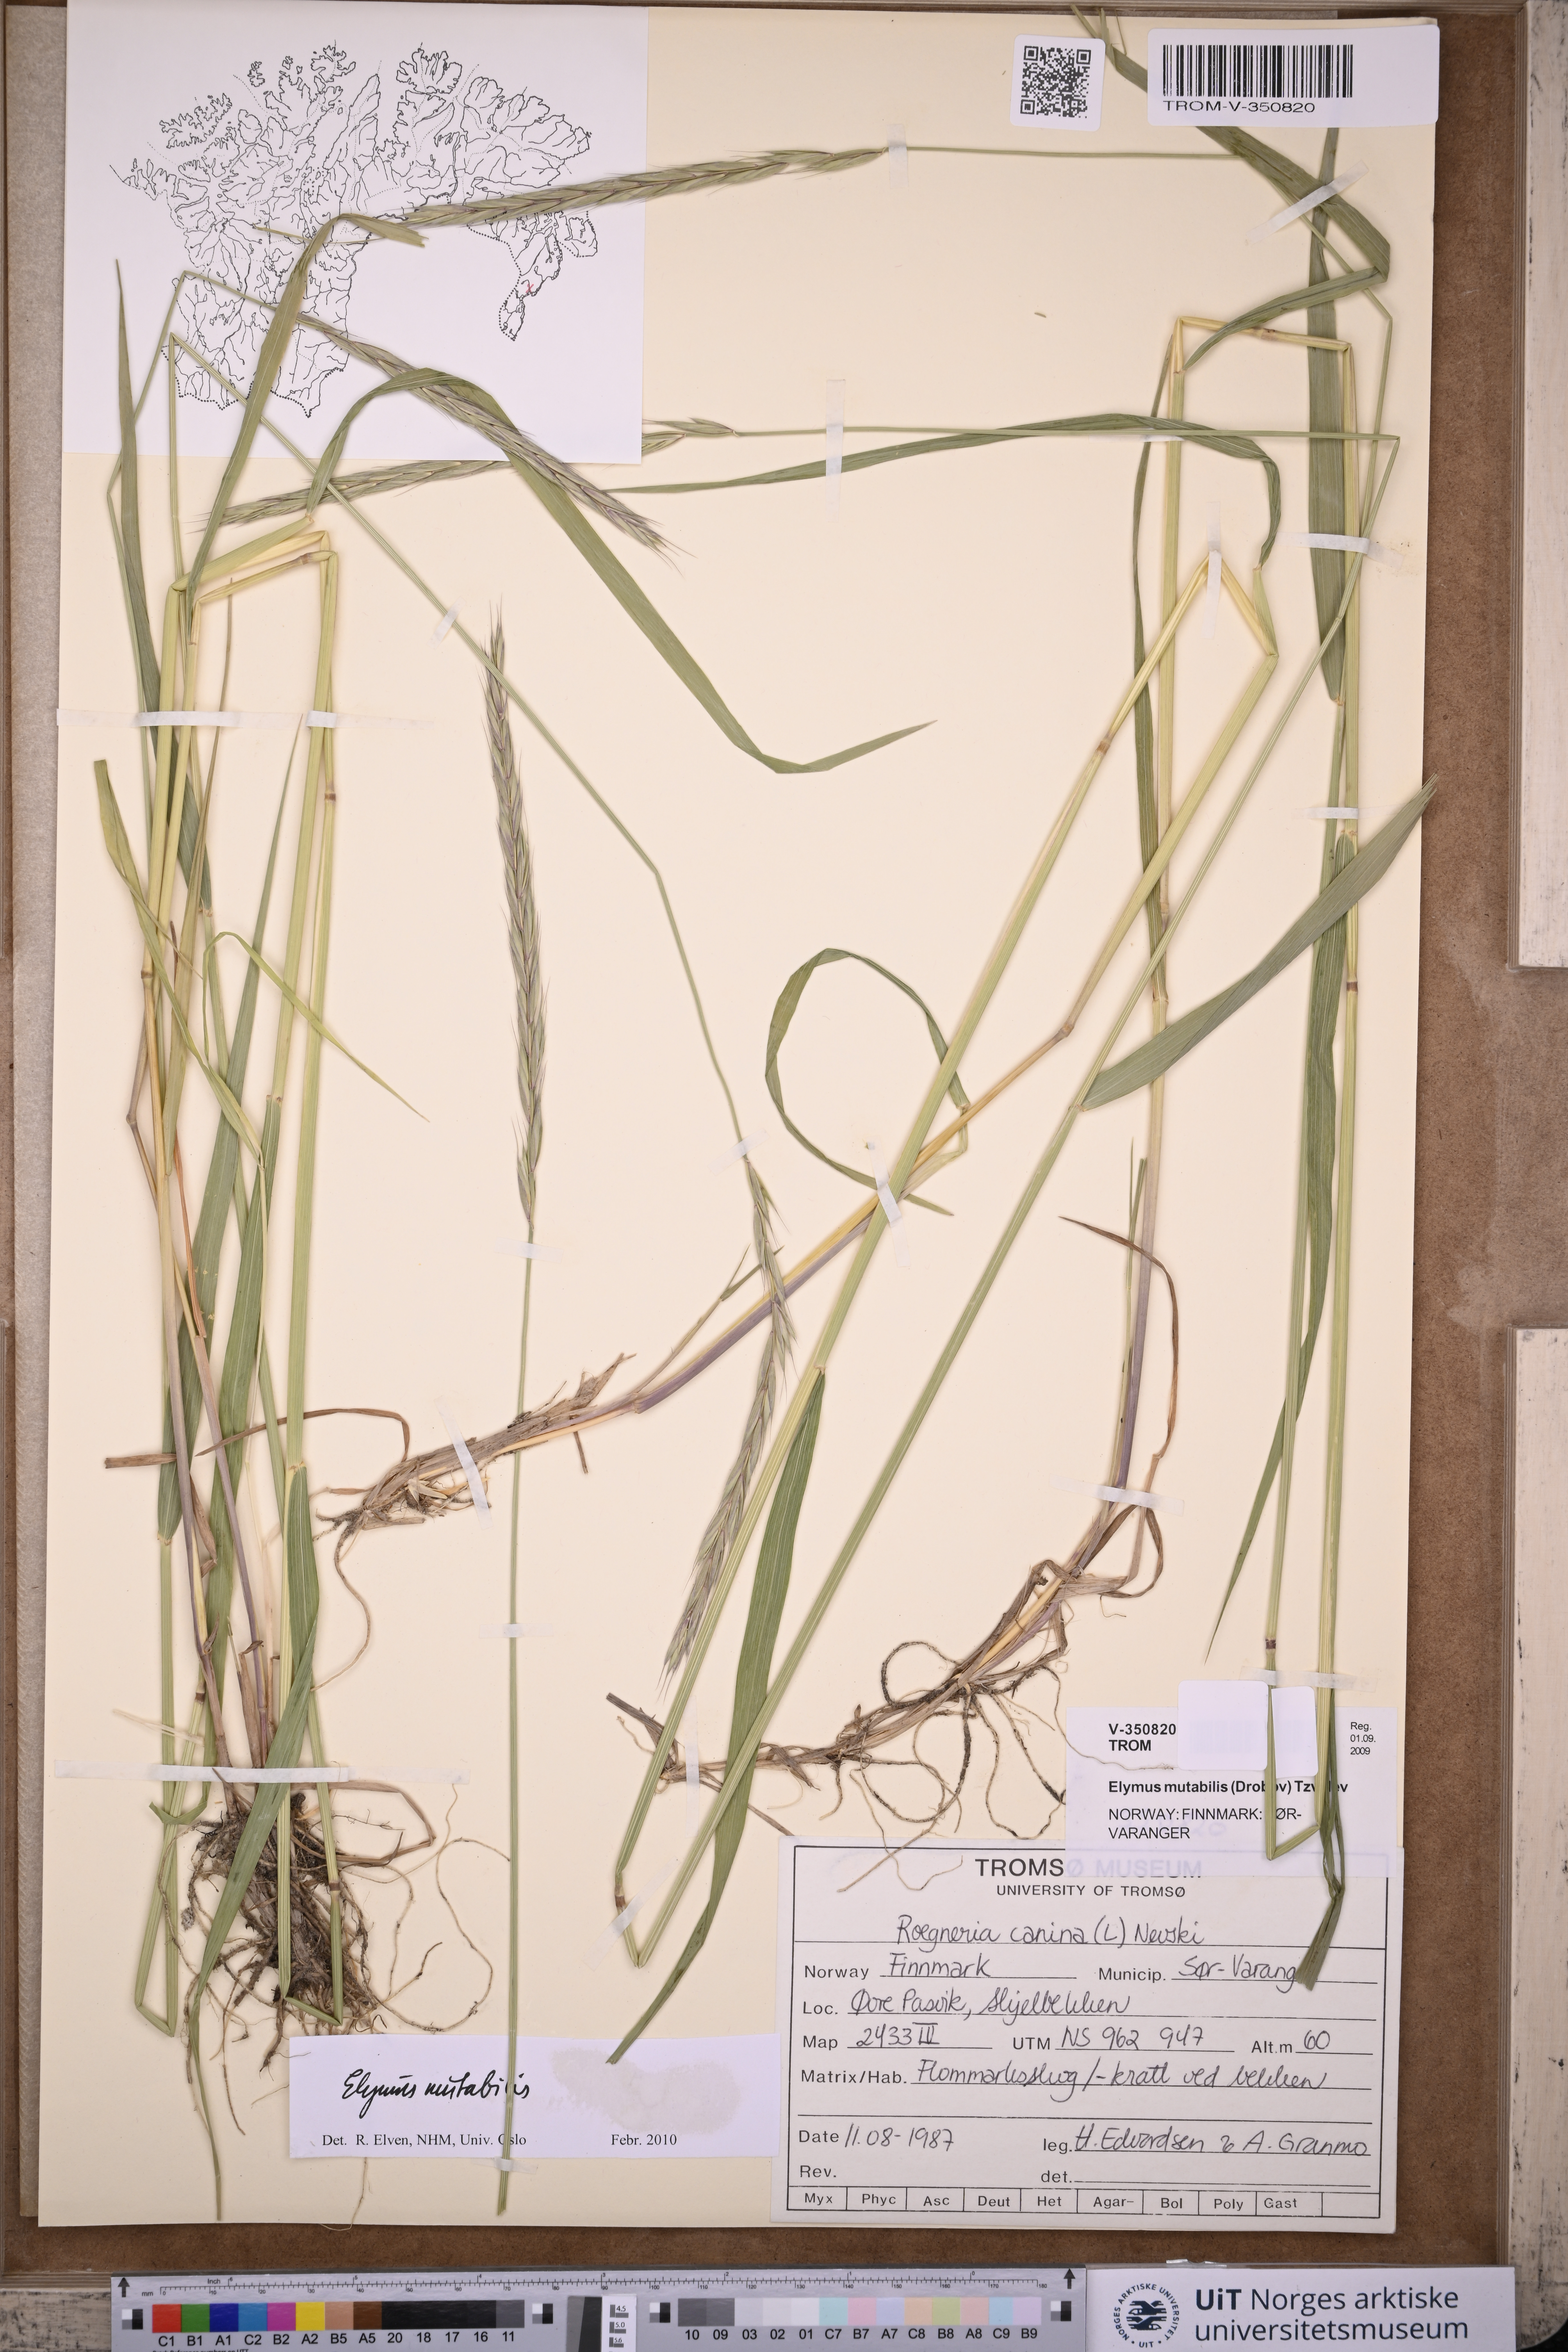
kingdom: Plantae
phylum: Tracheophyta
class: Liliopsida
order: Poales
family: Poaceae
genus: Elymus
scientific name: Elymus mutabilis
